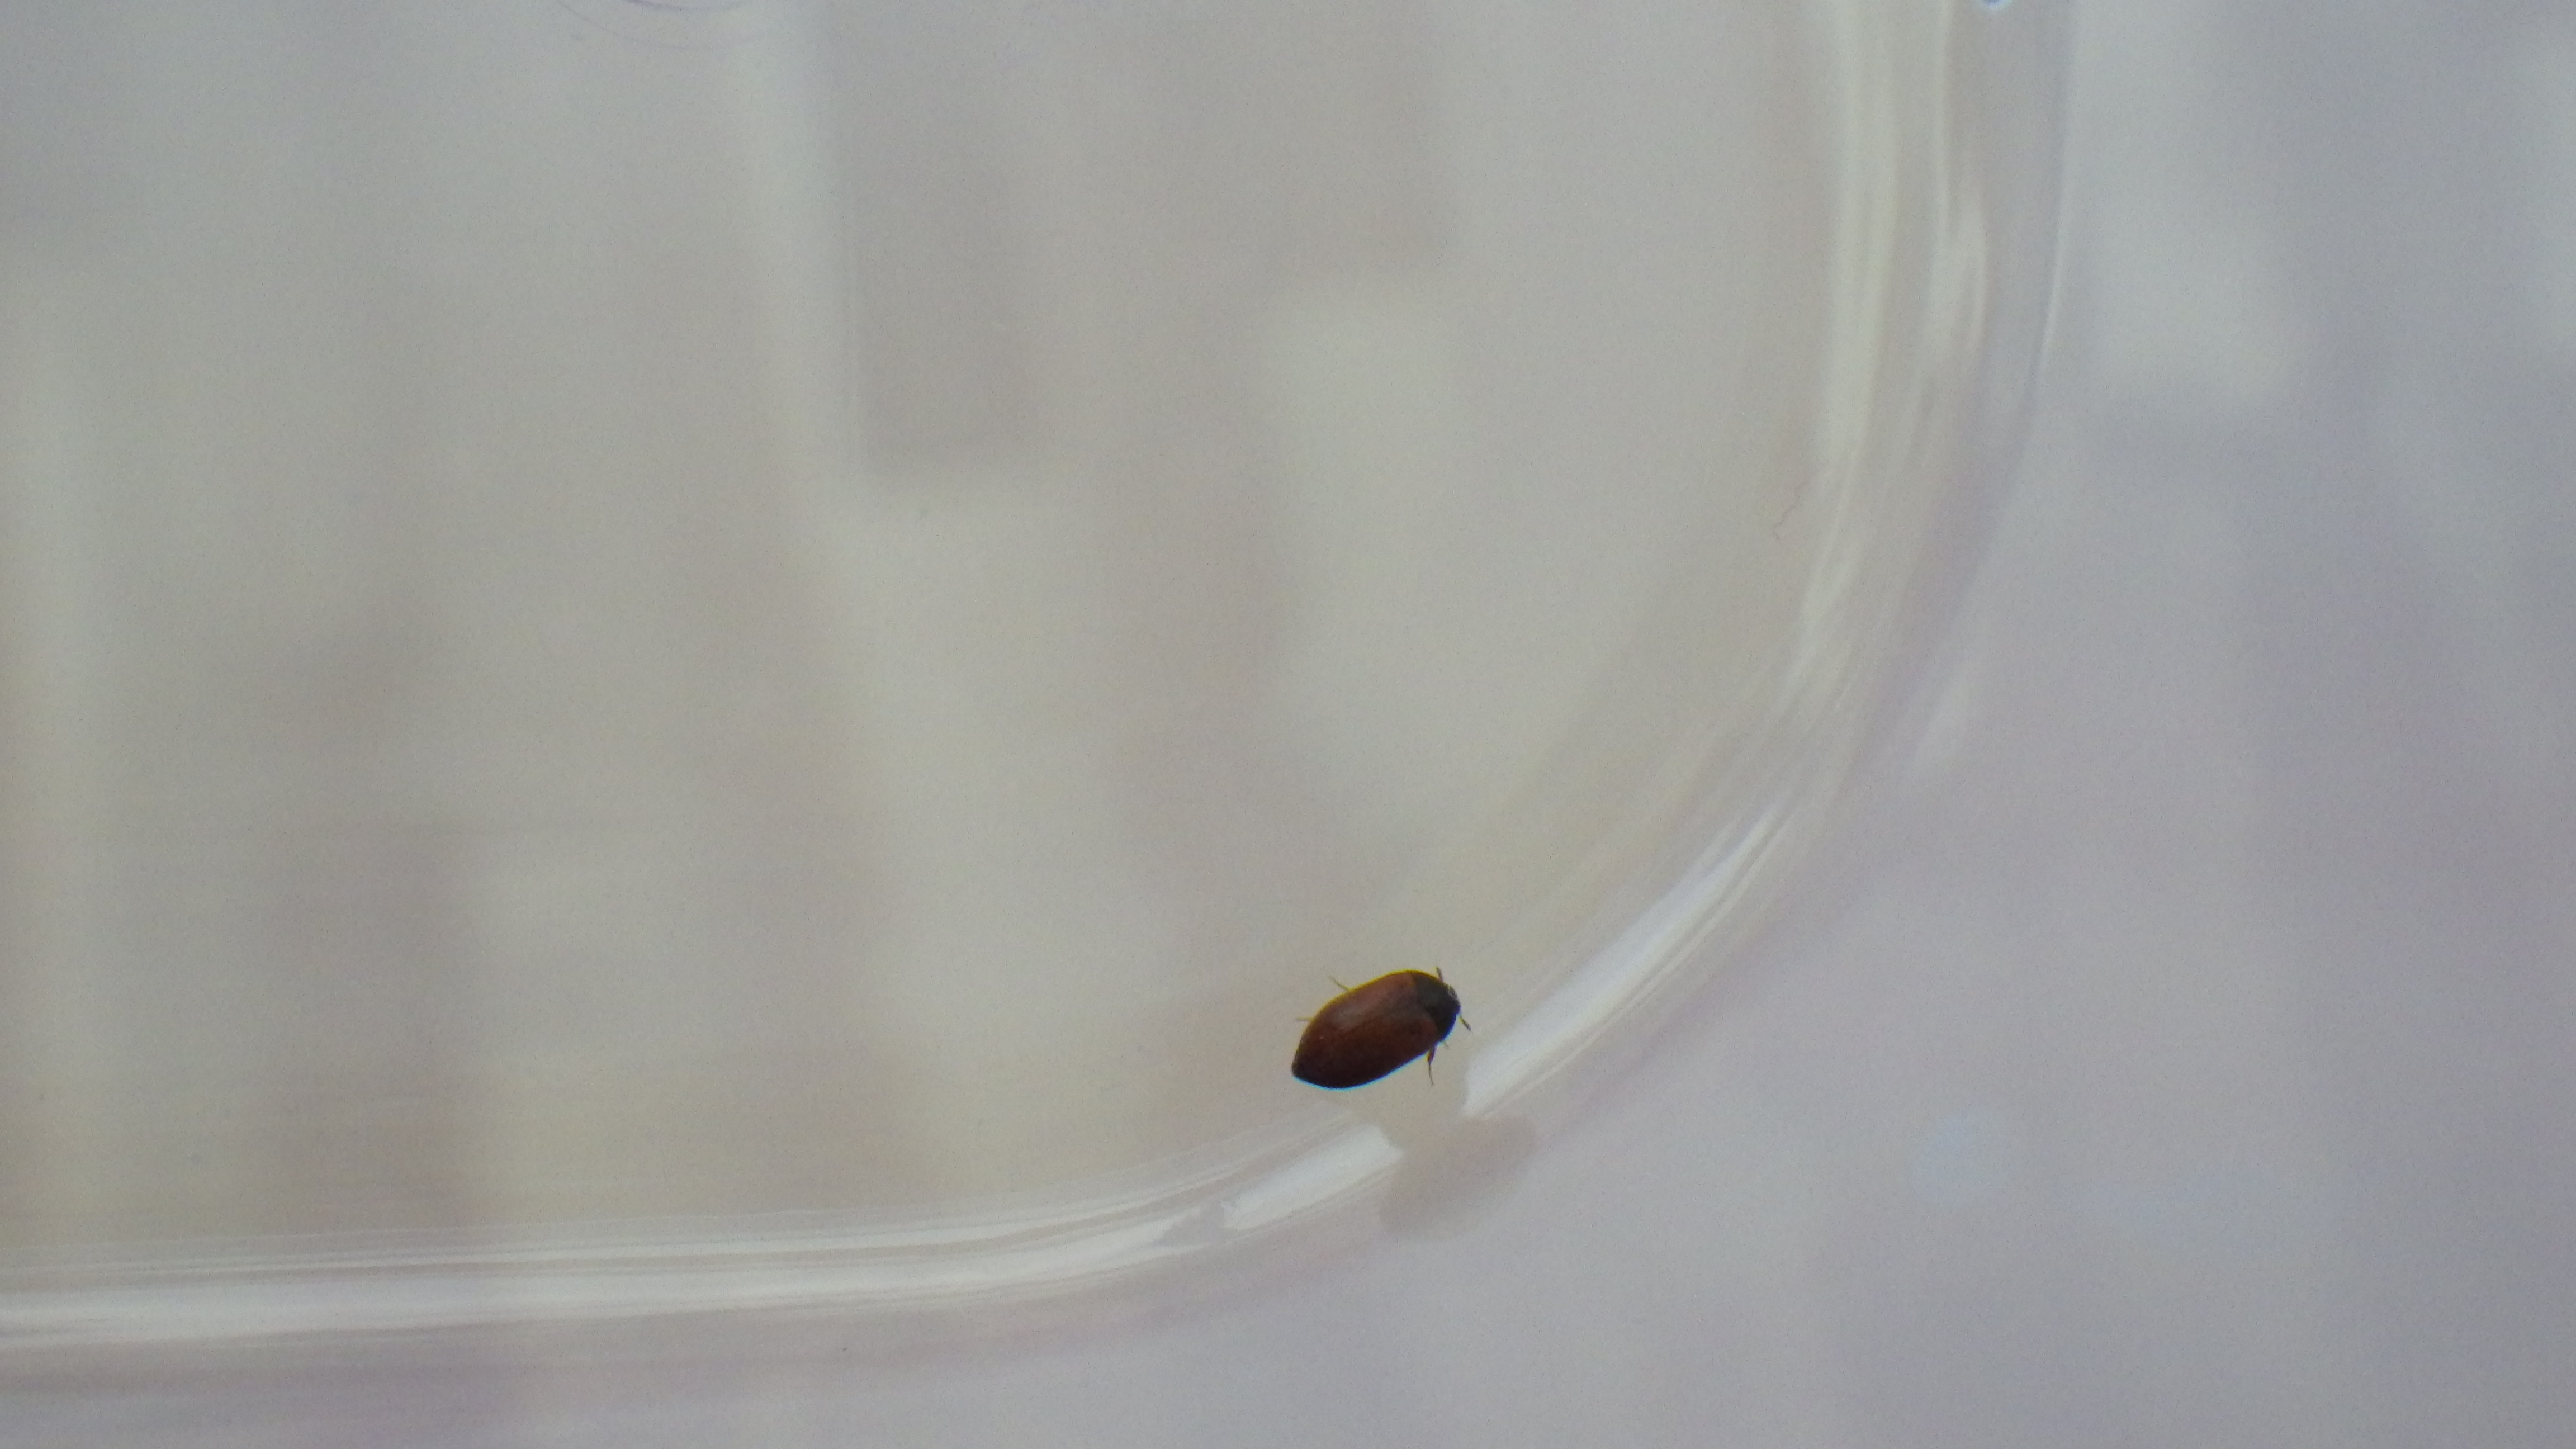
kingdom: Animalia
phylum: Arthropoda
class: Insecta
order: Coleoptera
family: Dermestidae
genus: Attagenus
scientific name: Attagenus smirnovi
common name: Brown carpet beetle
